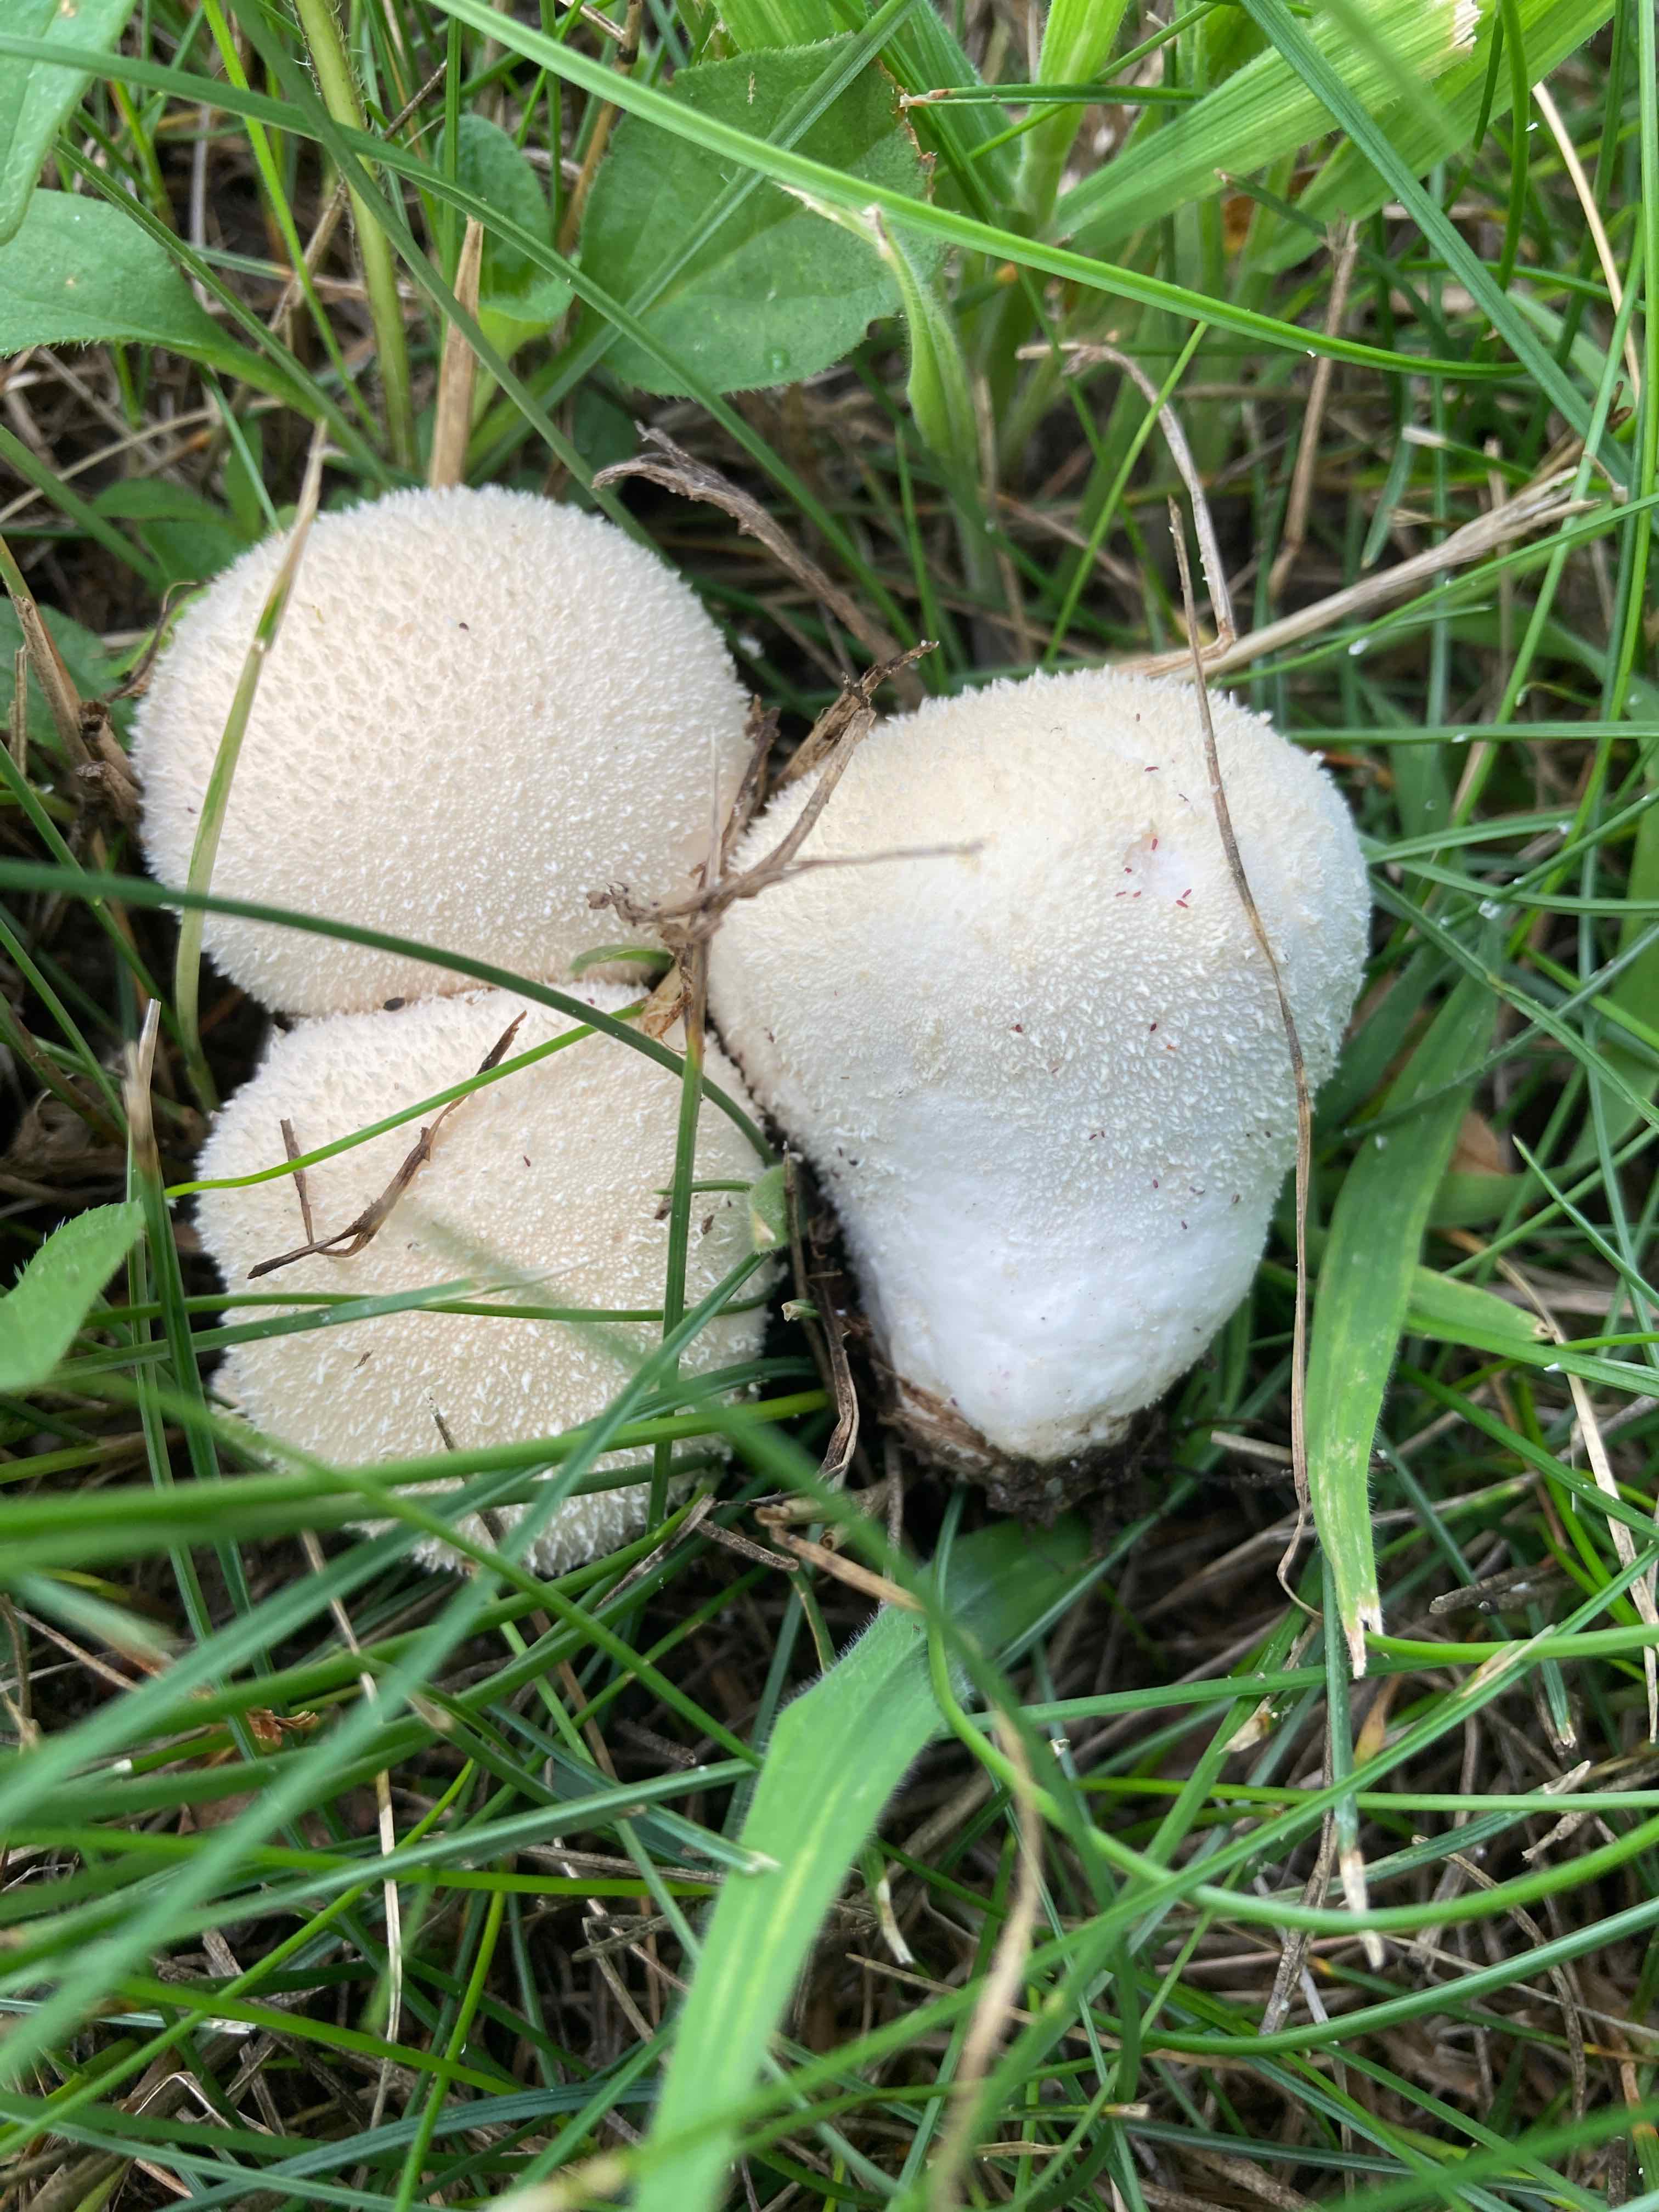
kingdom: Fungi
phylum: Basidiomycota
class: Agaricomycetes
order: Agaricales
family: Lycoperdaceae
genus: Lycoperdon
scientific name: Lycoperdon pratense
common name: flad støvbold
